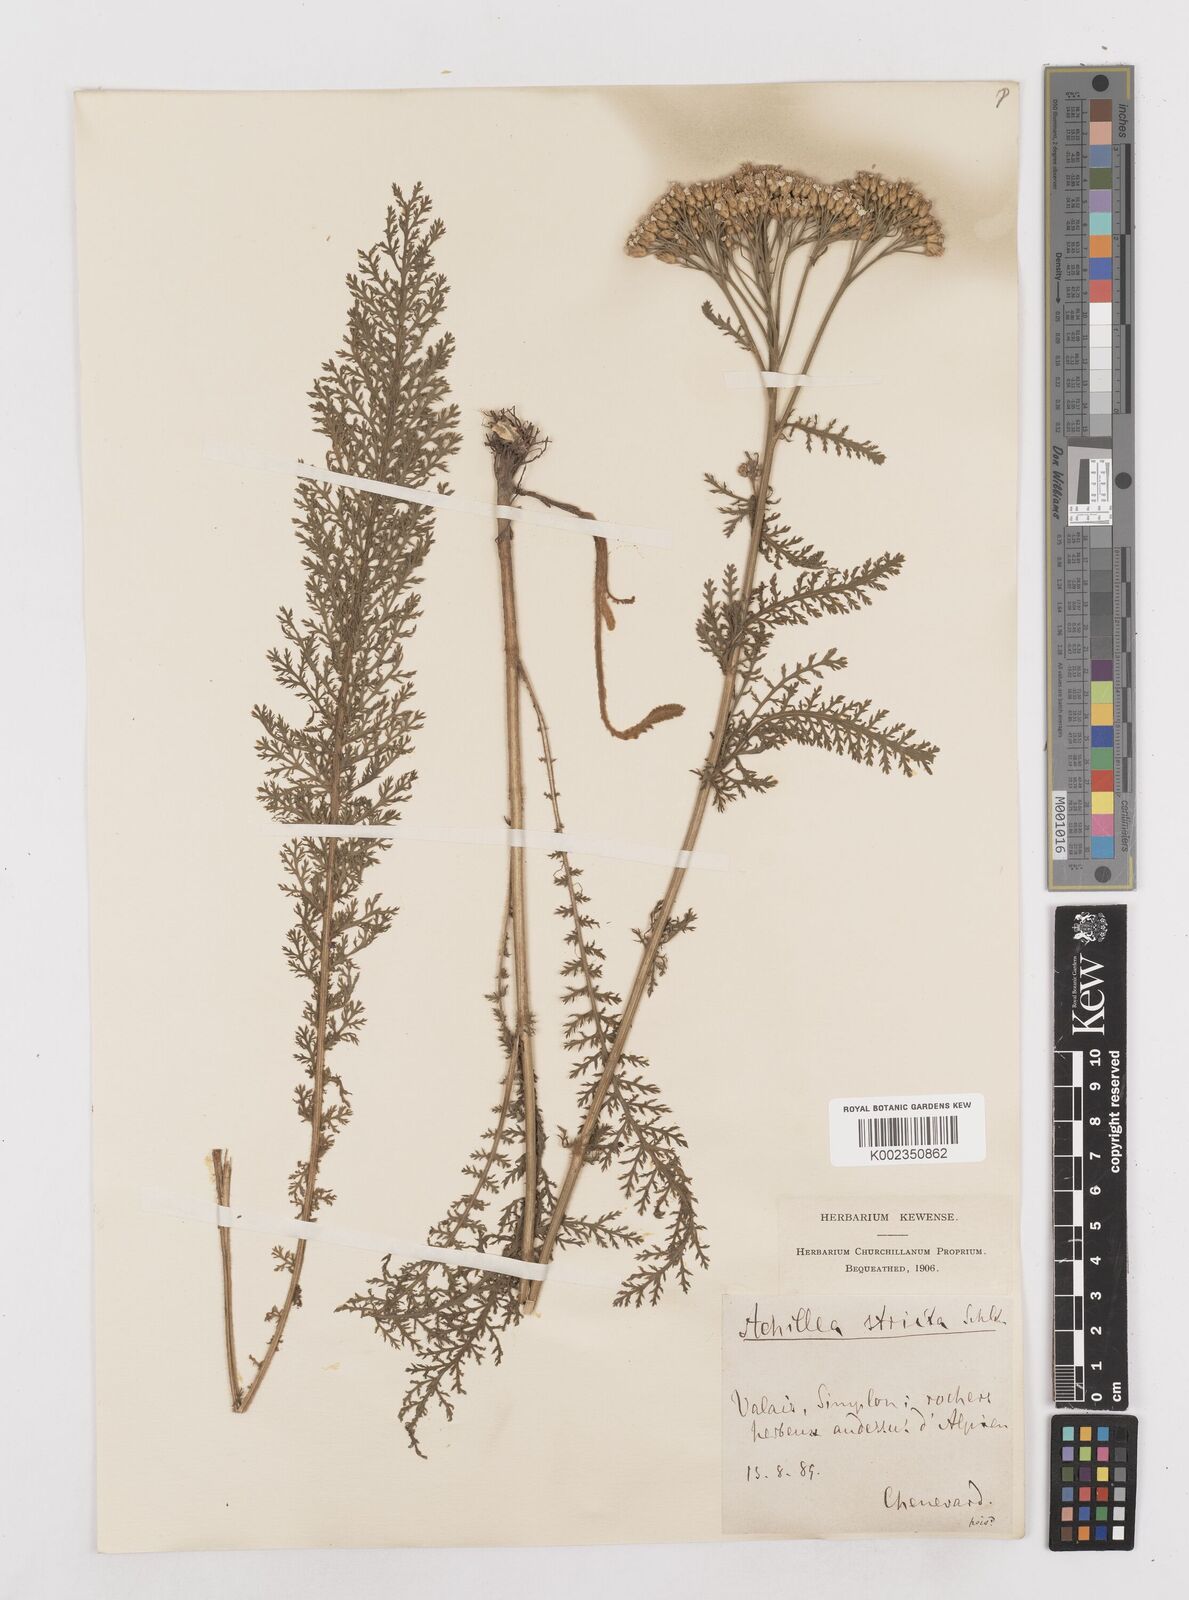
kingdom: Plantae
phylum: Tracheophyta
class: Magnoliopsida
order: Asterales
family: Asteraceae
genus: Achillea
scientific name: Achillea distans
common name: Tall yarrow
